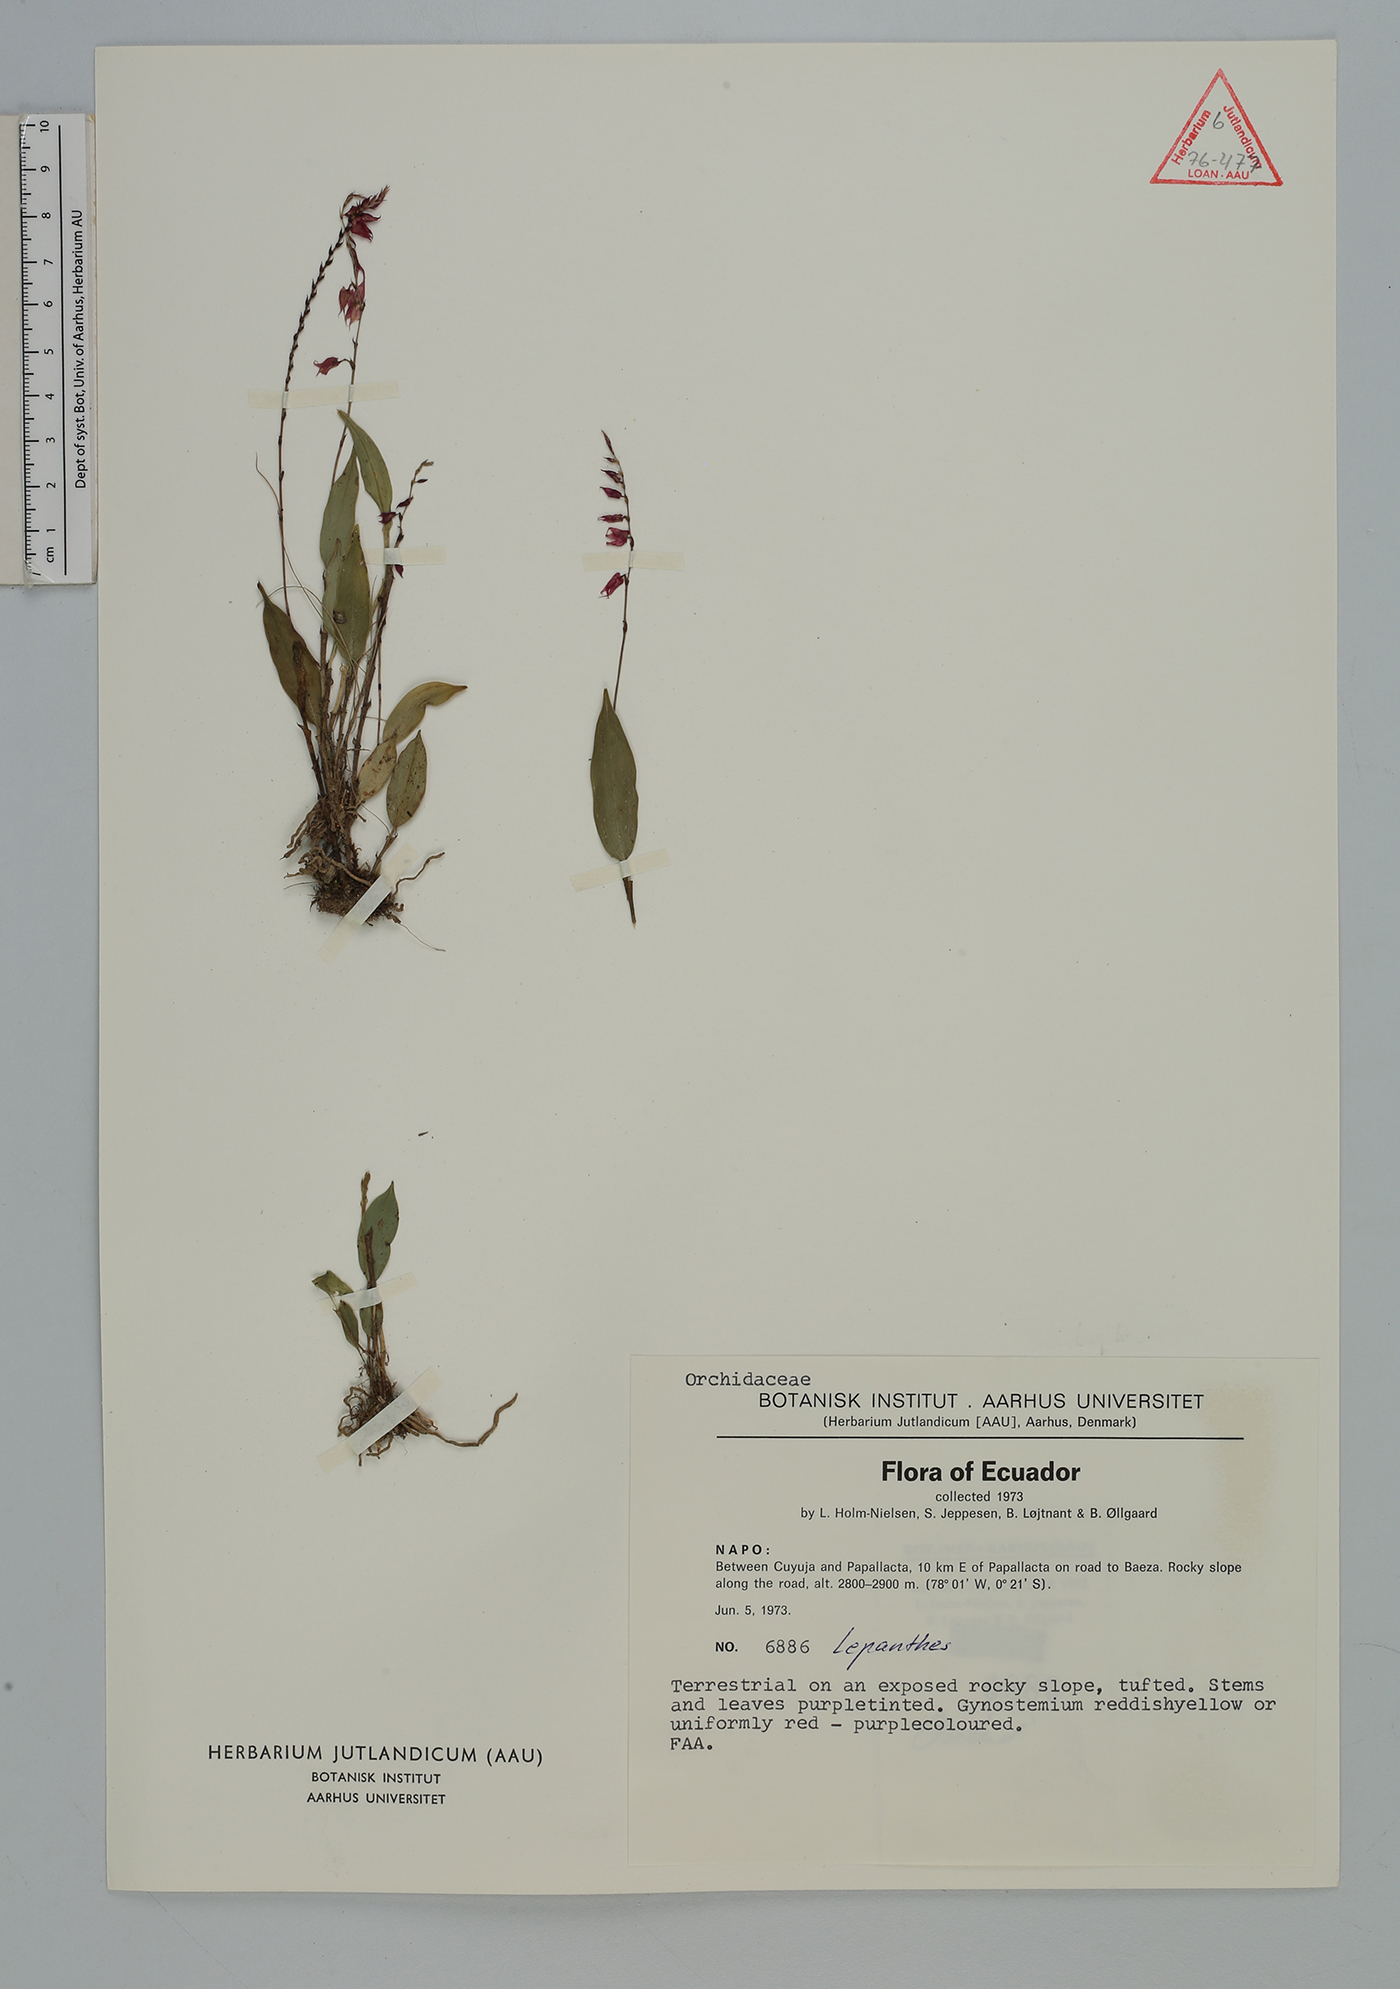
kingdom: Plantae
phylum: Tracheophyta
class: Liliopsida
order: Asparagales
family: Orchidaceae
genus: Lepanthes
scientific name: Lepanthes
